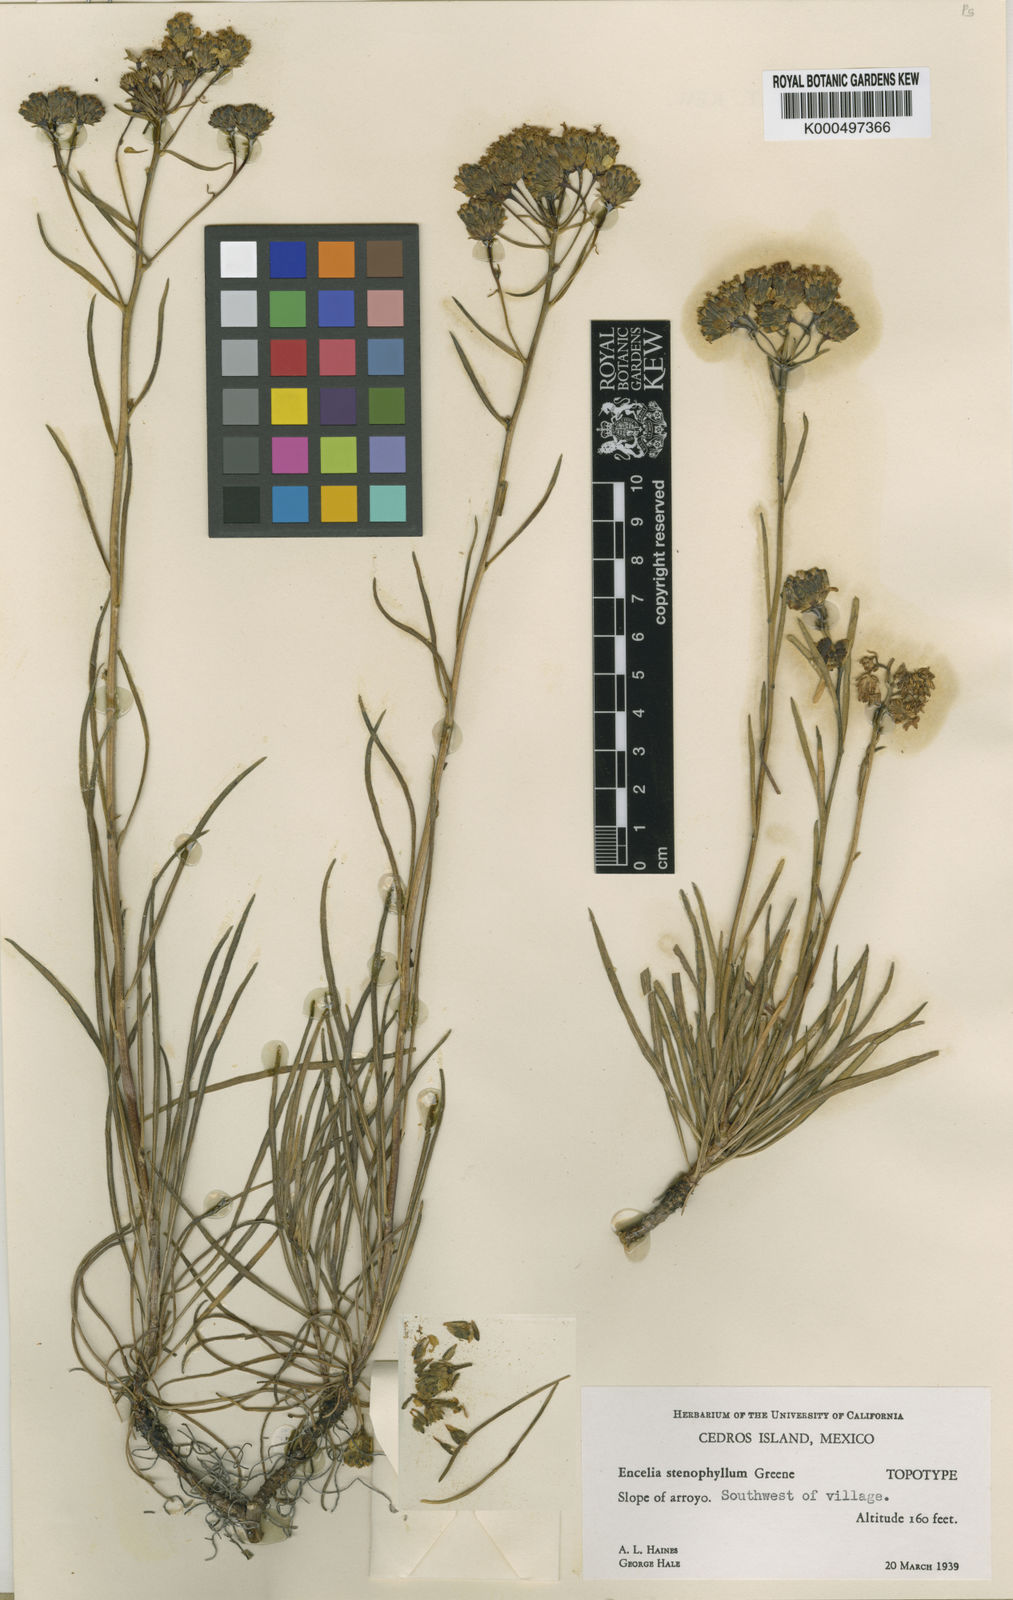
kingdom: Plantae
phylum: Tracheophyta
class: Magnoliopsida
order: Asterales
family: Asteraceae
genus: Encelia
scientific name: Encelia stenophylla
